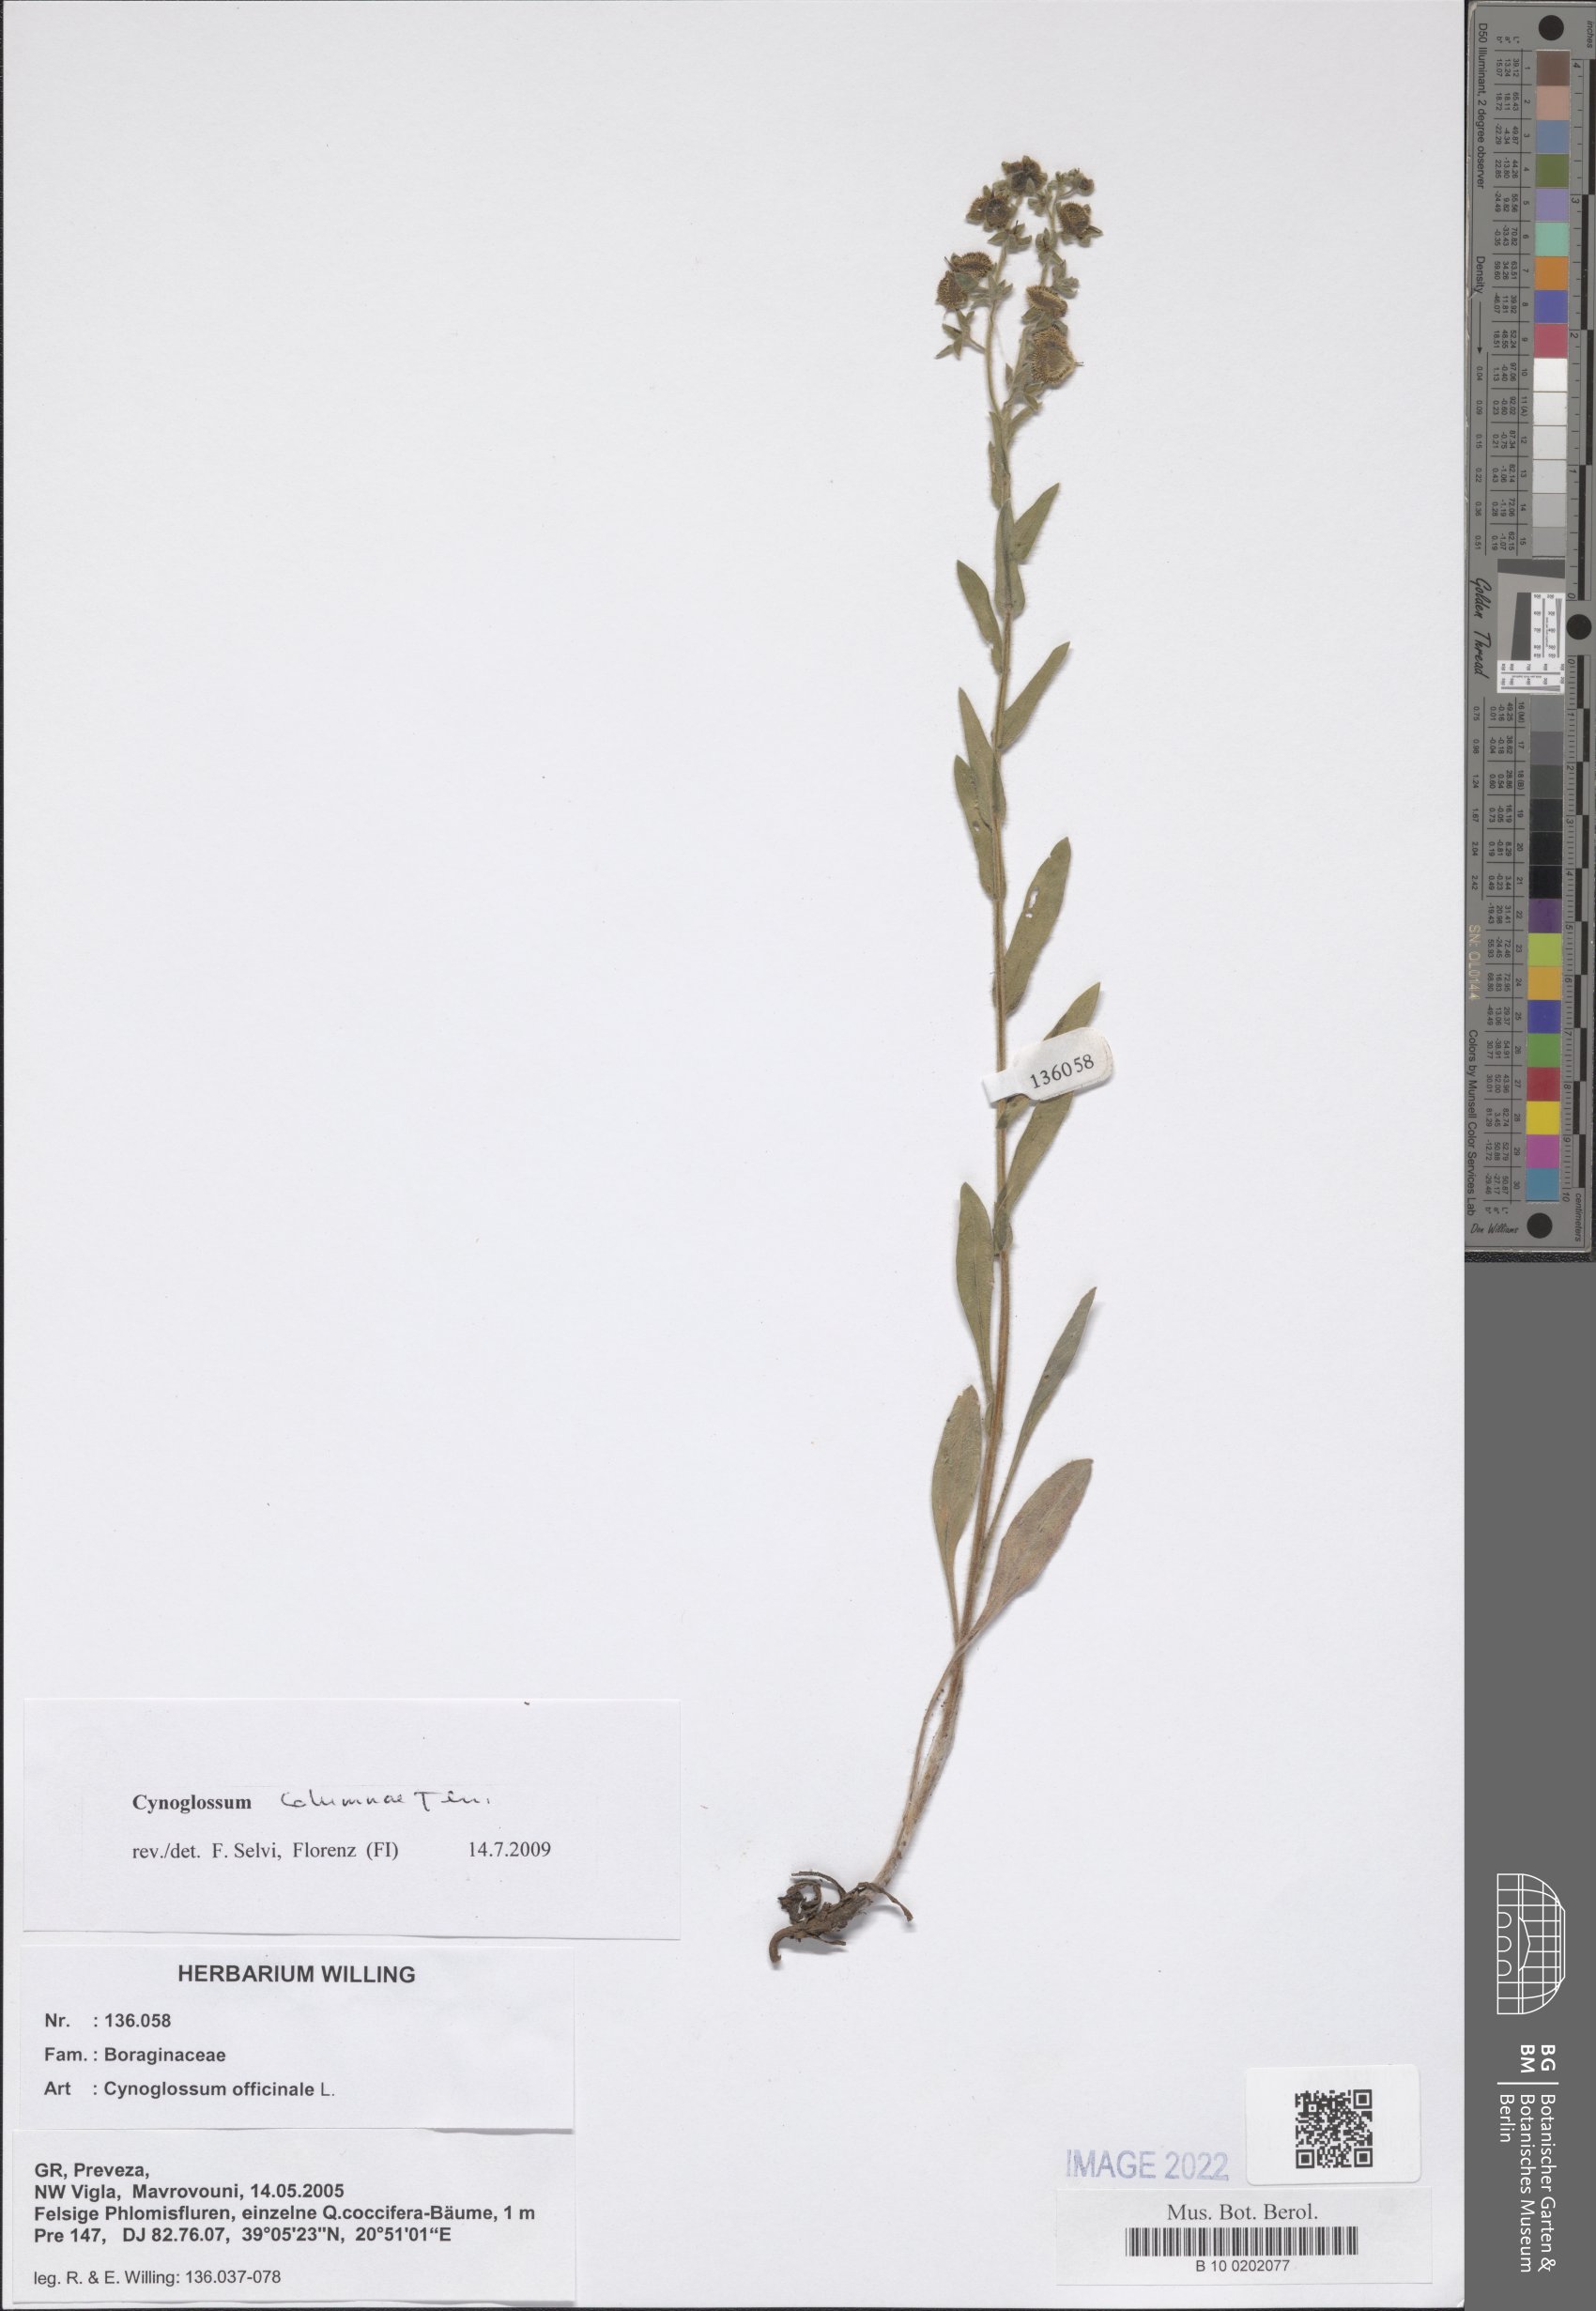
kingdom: Plantae
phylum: Tracheophyta
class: Magnoliopsida
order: Boraginales
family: Boraginaceae
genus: Rindera
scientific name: Rindera columnae
